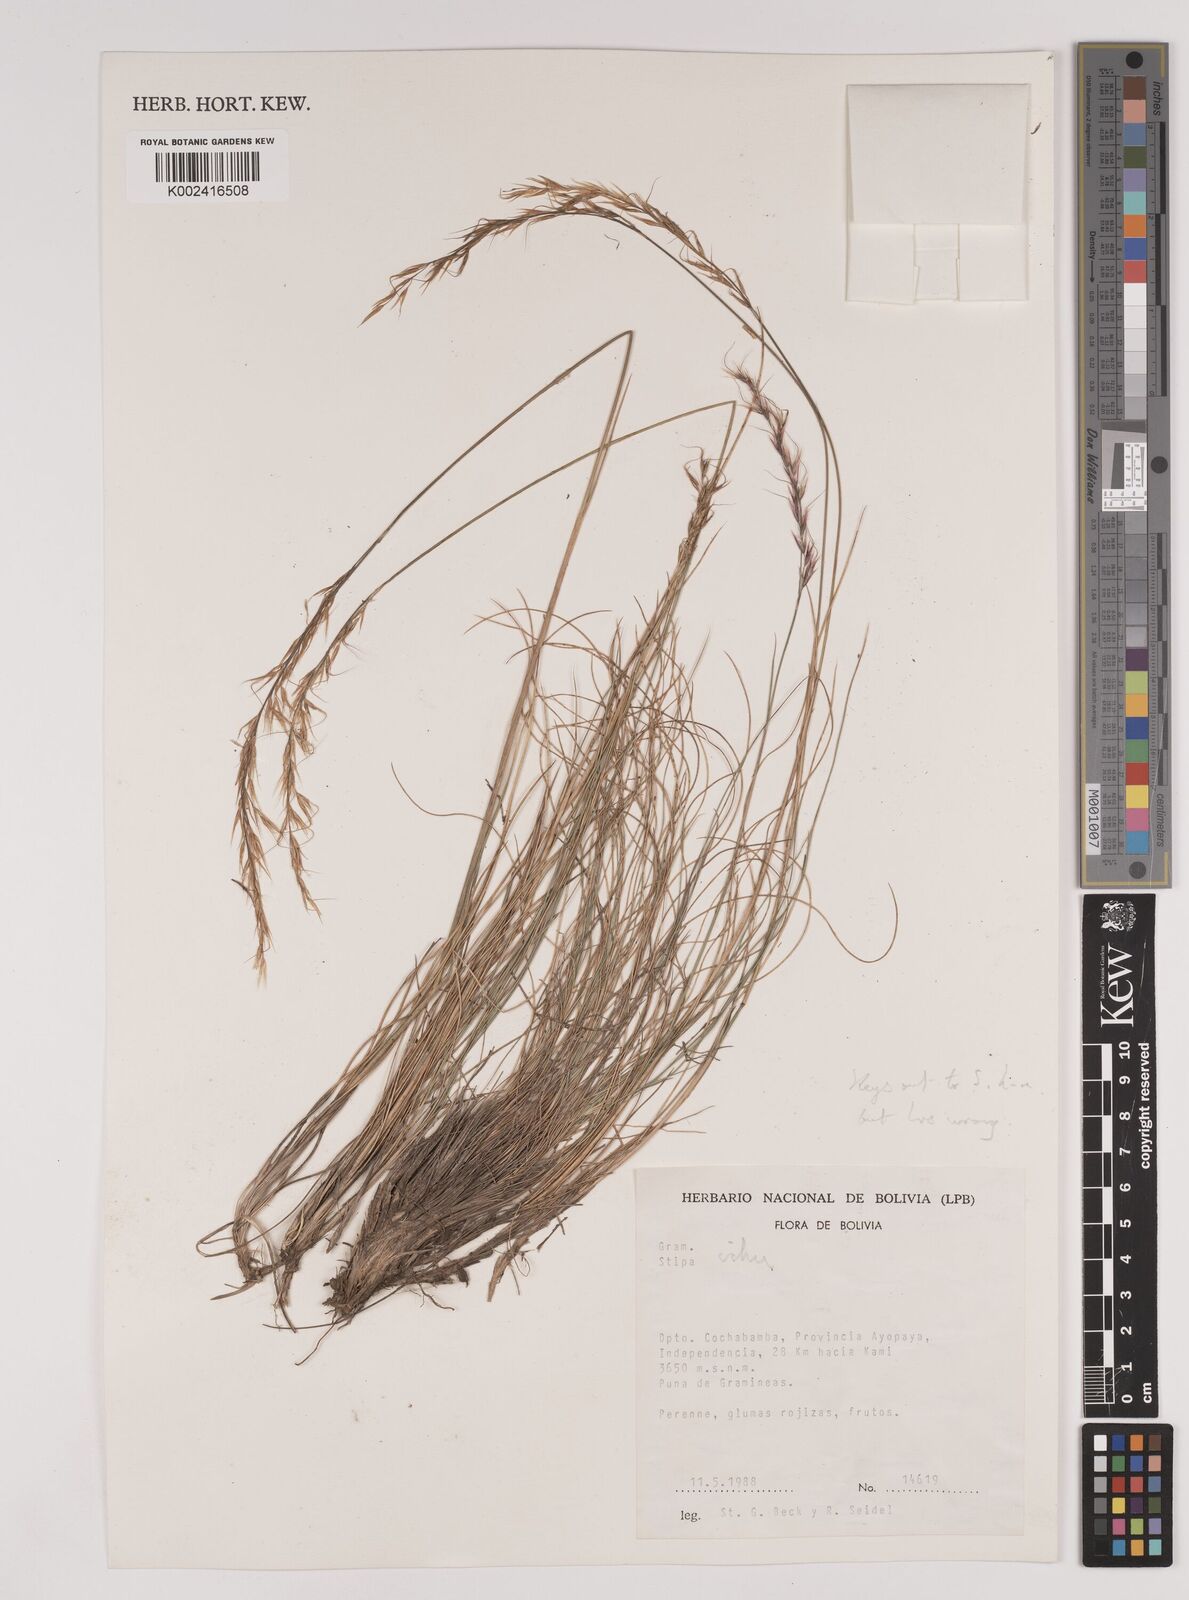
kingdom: Plantae
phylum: Tracheophyta
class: Liliopsida
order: Poales
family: Poaceae
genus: Jarava
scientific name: Jarava ichu
